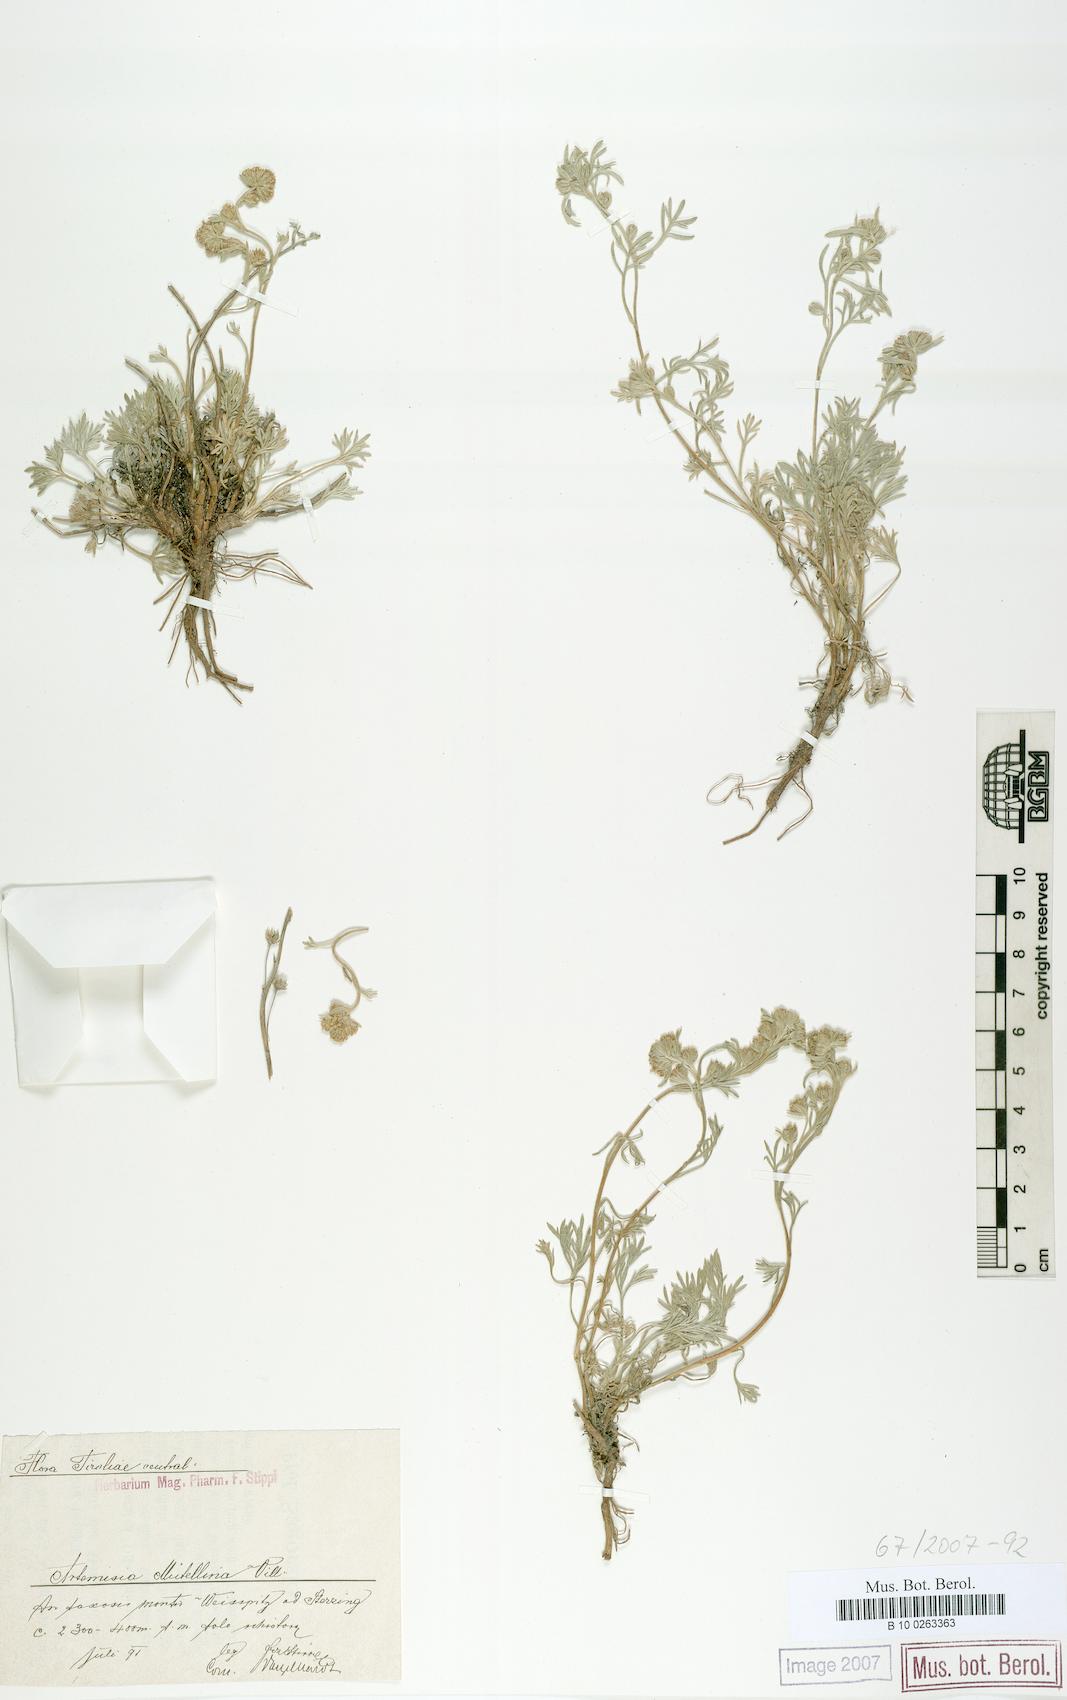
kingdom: Plantae
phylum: Tracheophyta
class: Magnoliopsida
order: Asterales
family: Asteraceae
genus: Artemisia
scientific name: Artemisia mutellina
